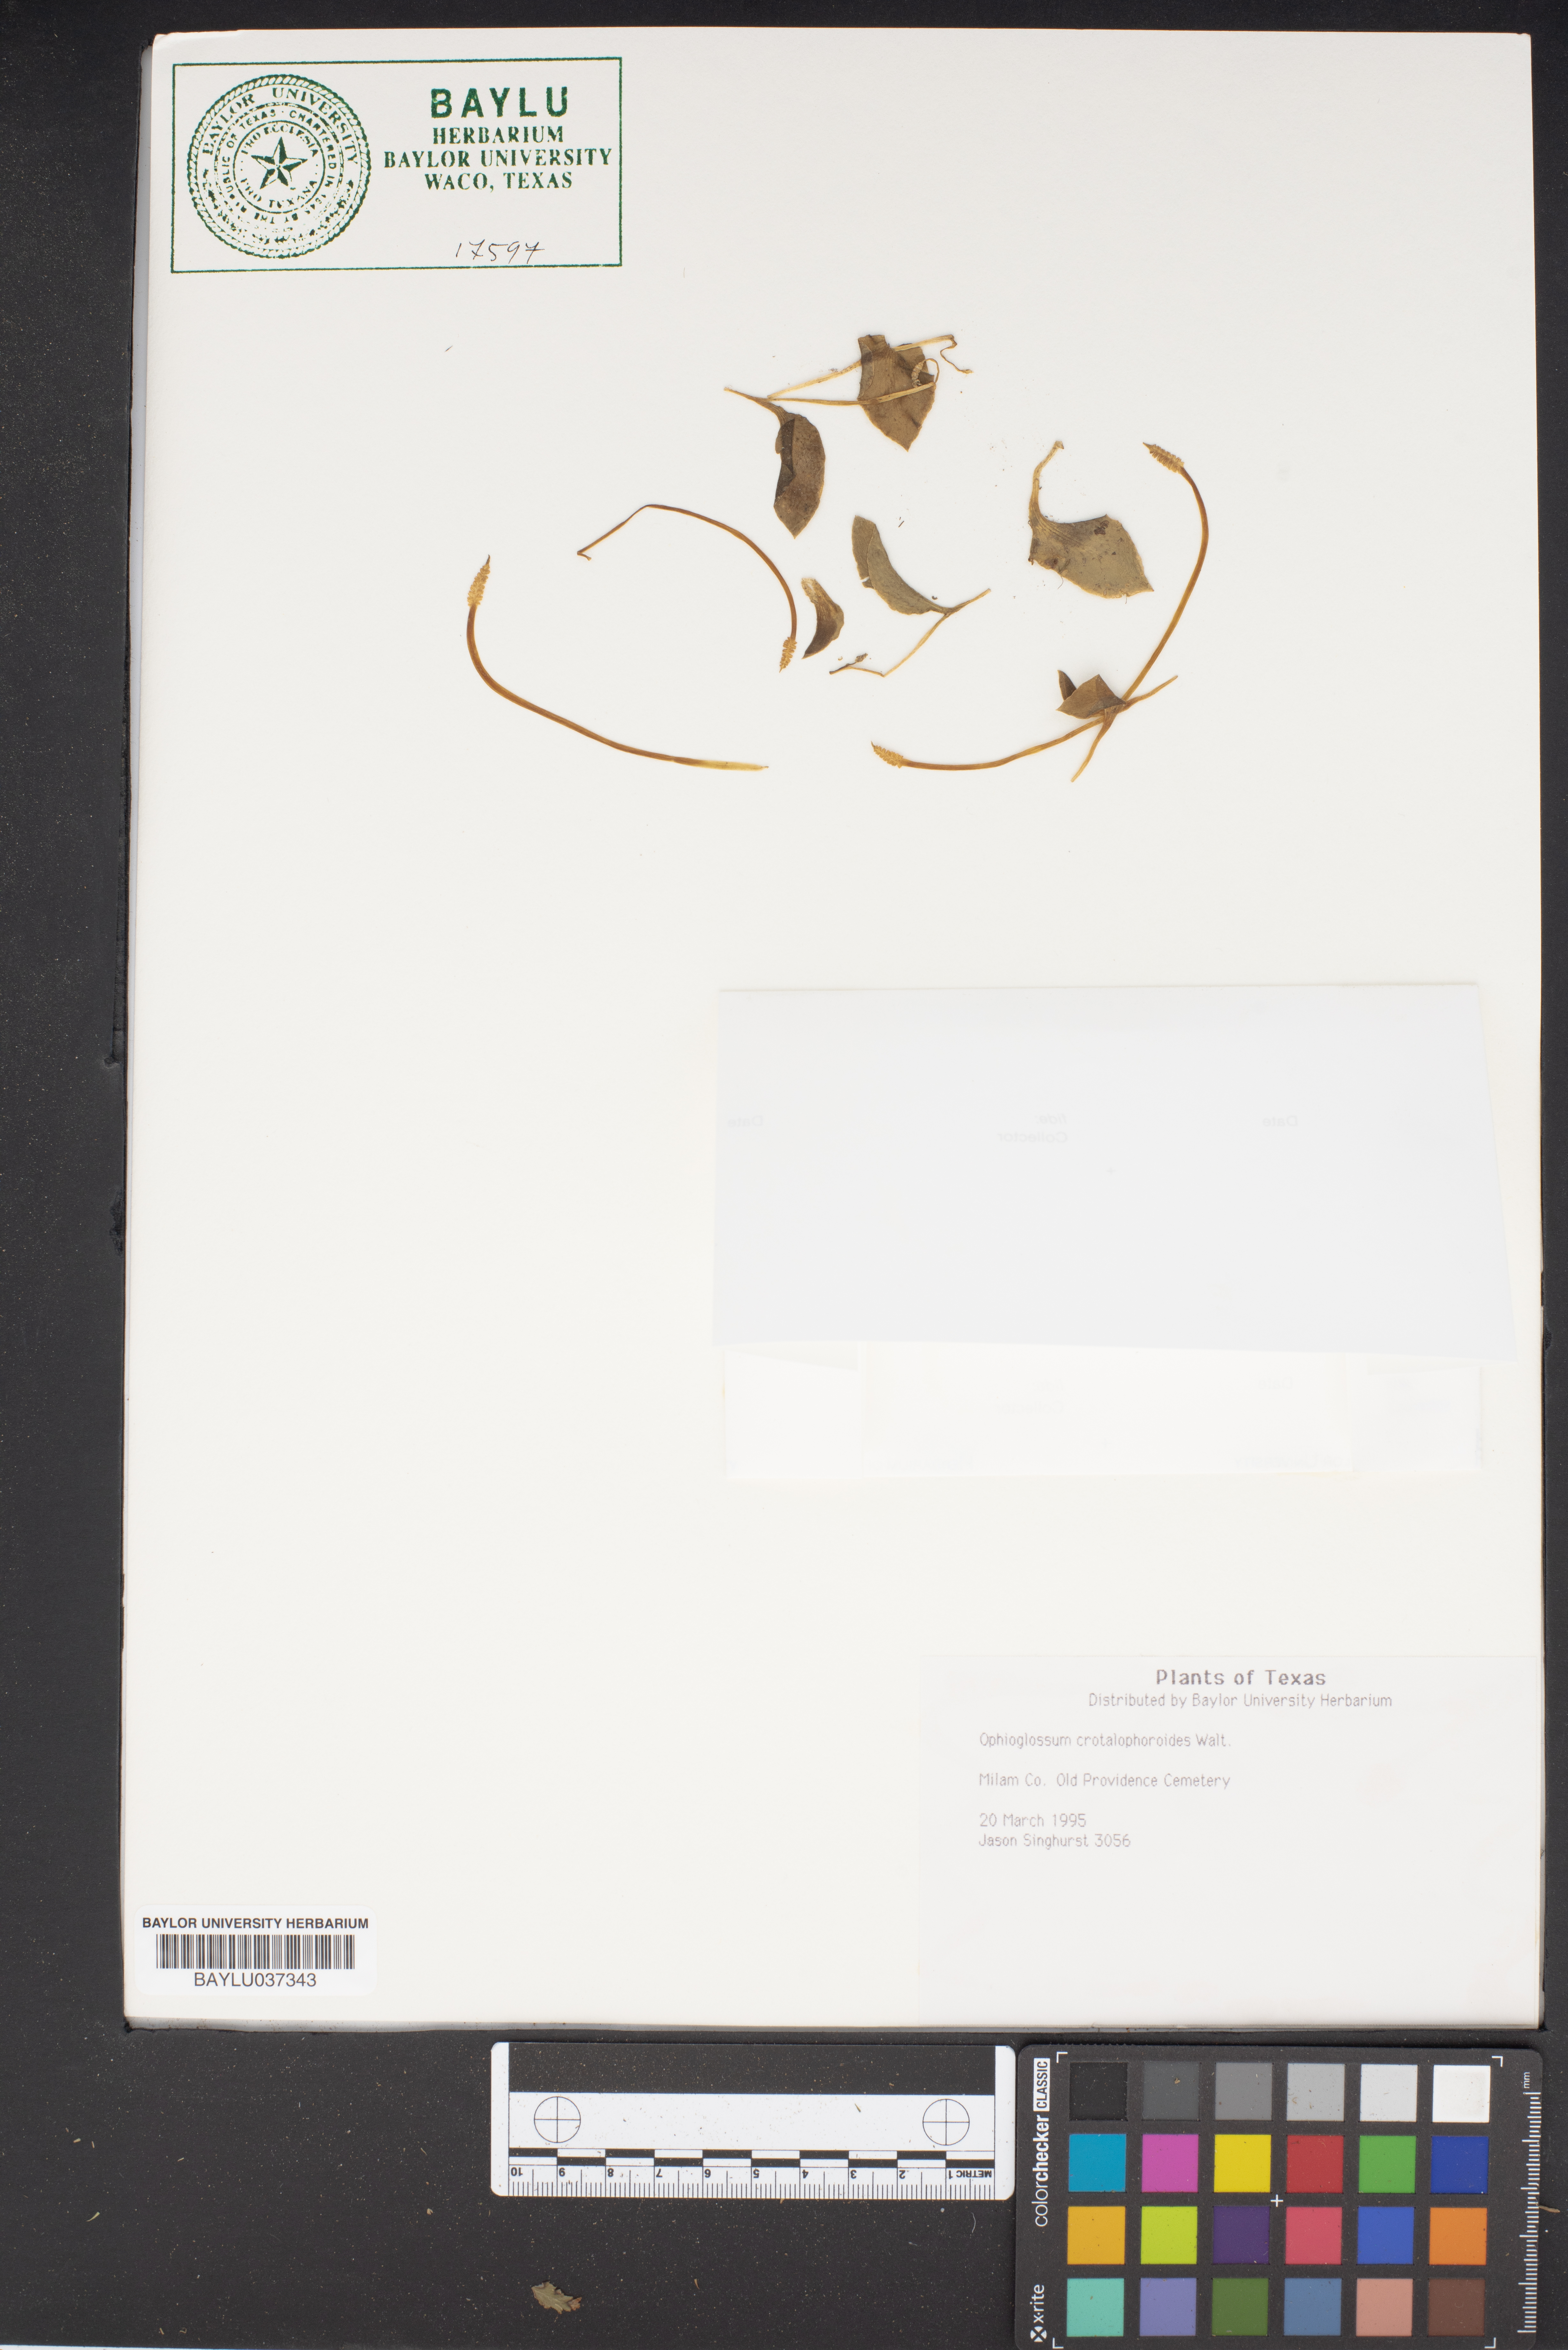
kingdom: Plantae
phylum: Tracheophyta
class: Polypodiopsida
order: Ophioglossales
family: Ophioglossaceae
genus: Ophioglossum
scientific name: Ophioglossum crotalophoroides
